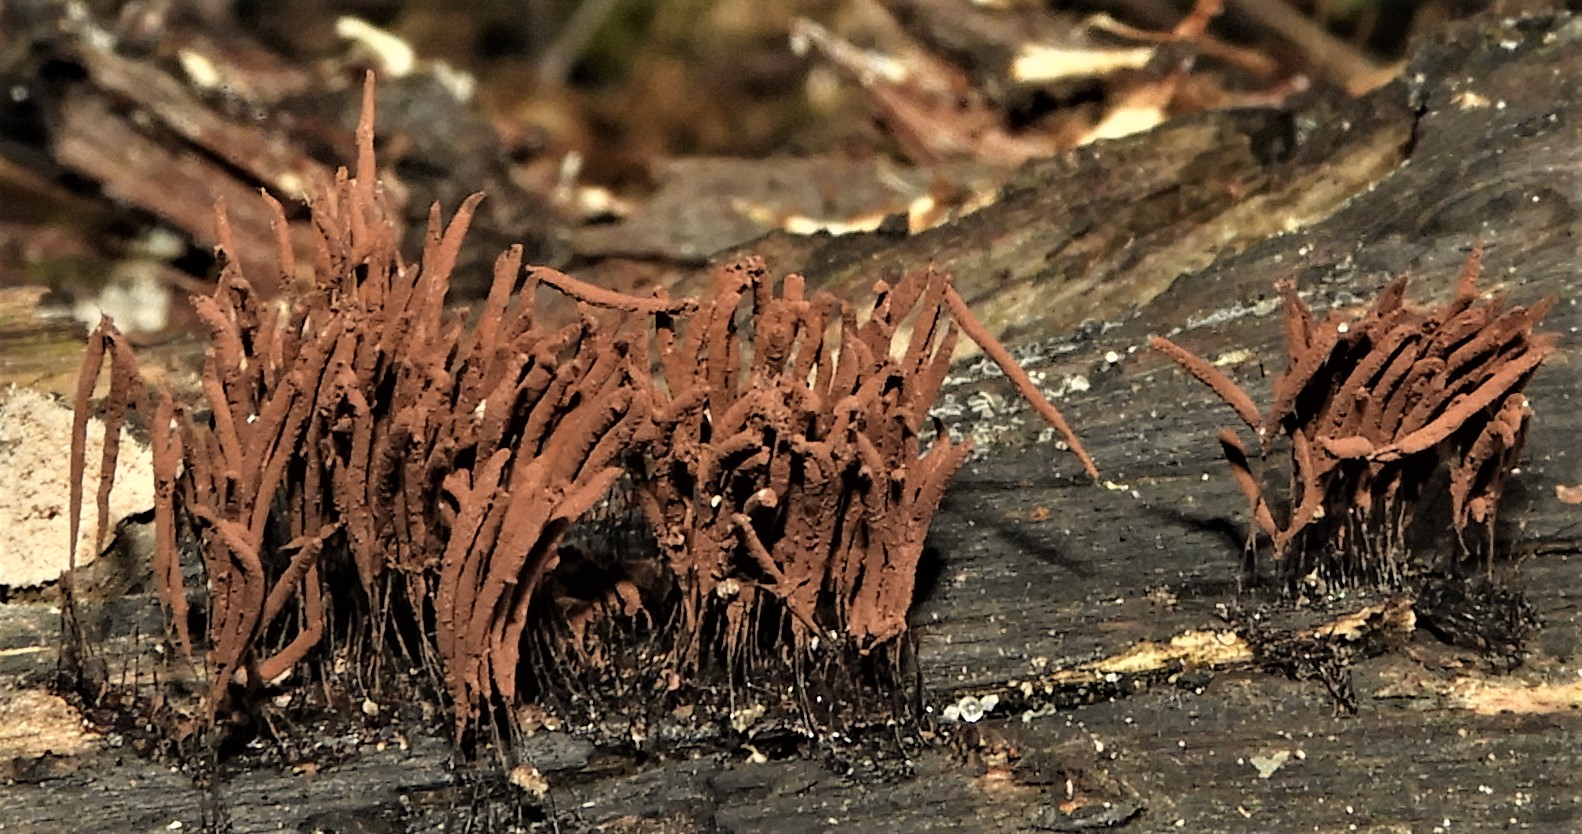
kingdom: Protozoa
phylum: Mycetozoa
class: Myxomycetes
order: Stemonitidales
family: Stemonitidaceae
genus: Stemonitis
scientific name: Stemonitis axifera
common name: rødbrun støvkølle
